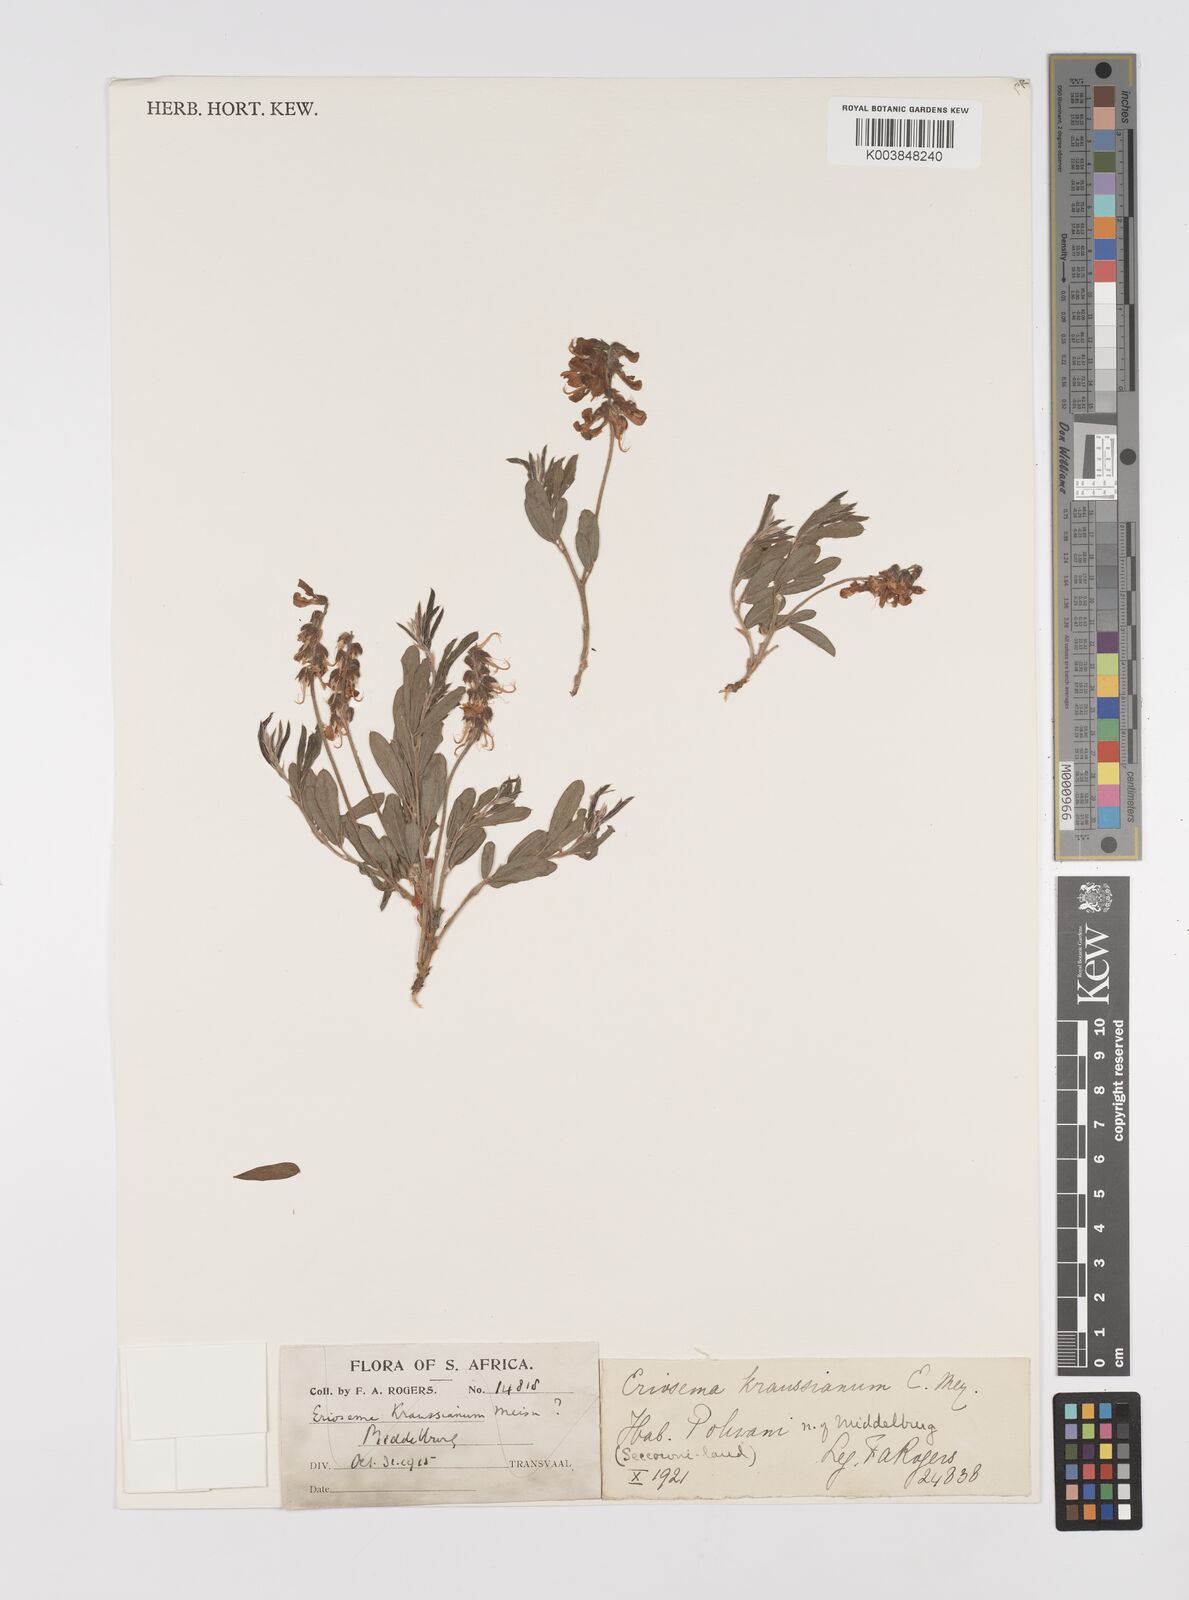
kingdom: Plantae
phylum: Tracheophyta
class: Magnoliopsida
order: Fabales
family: Fabaceae
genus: Eriosema
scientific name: Eriosema kraussianum
